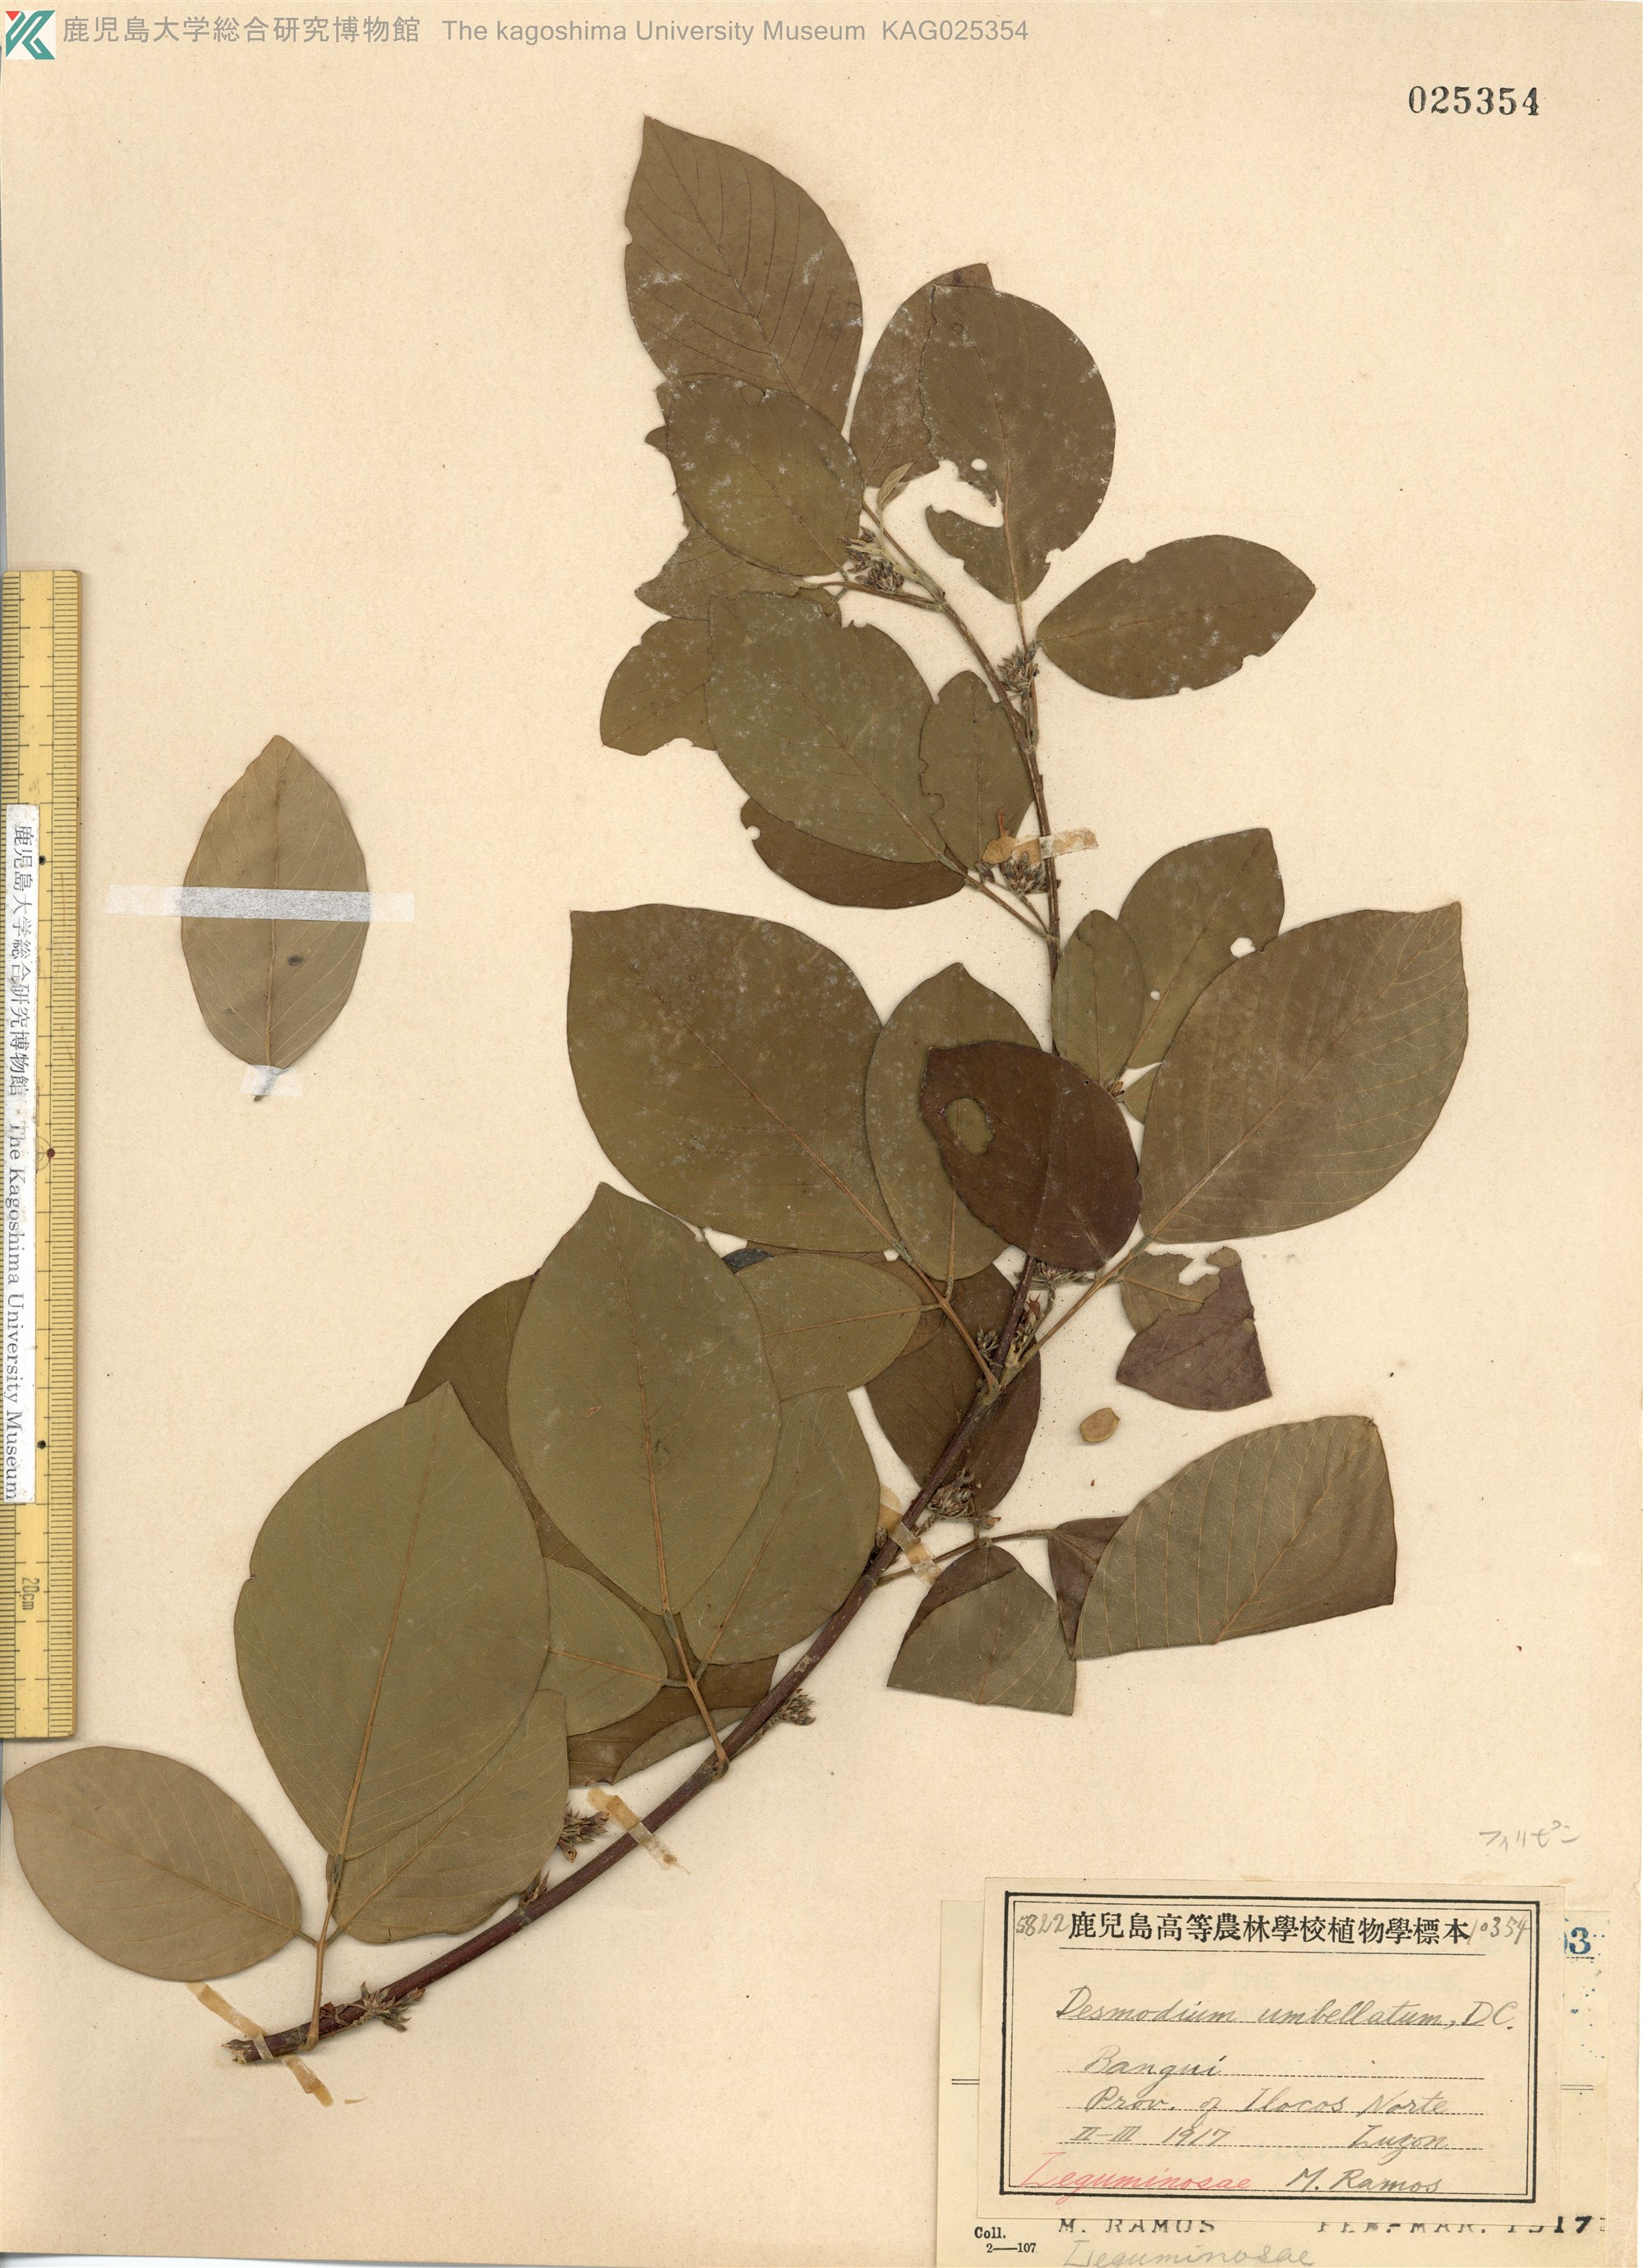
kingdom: Plantae
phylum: Tracheophyta
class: Magnoliopsida
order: Fabales
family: Fabaceae
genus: Desmodium
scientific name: Desmodium umbellatum
